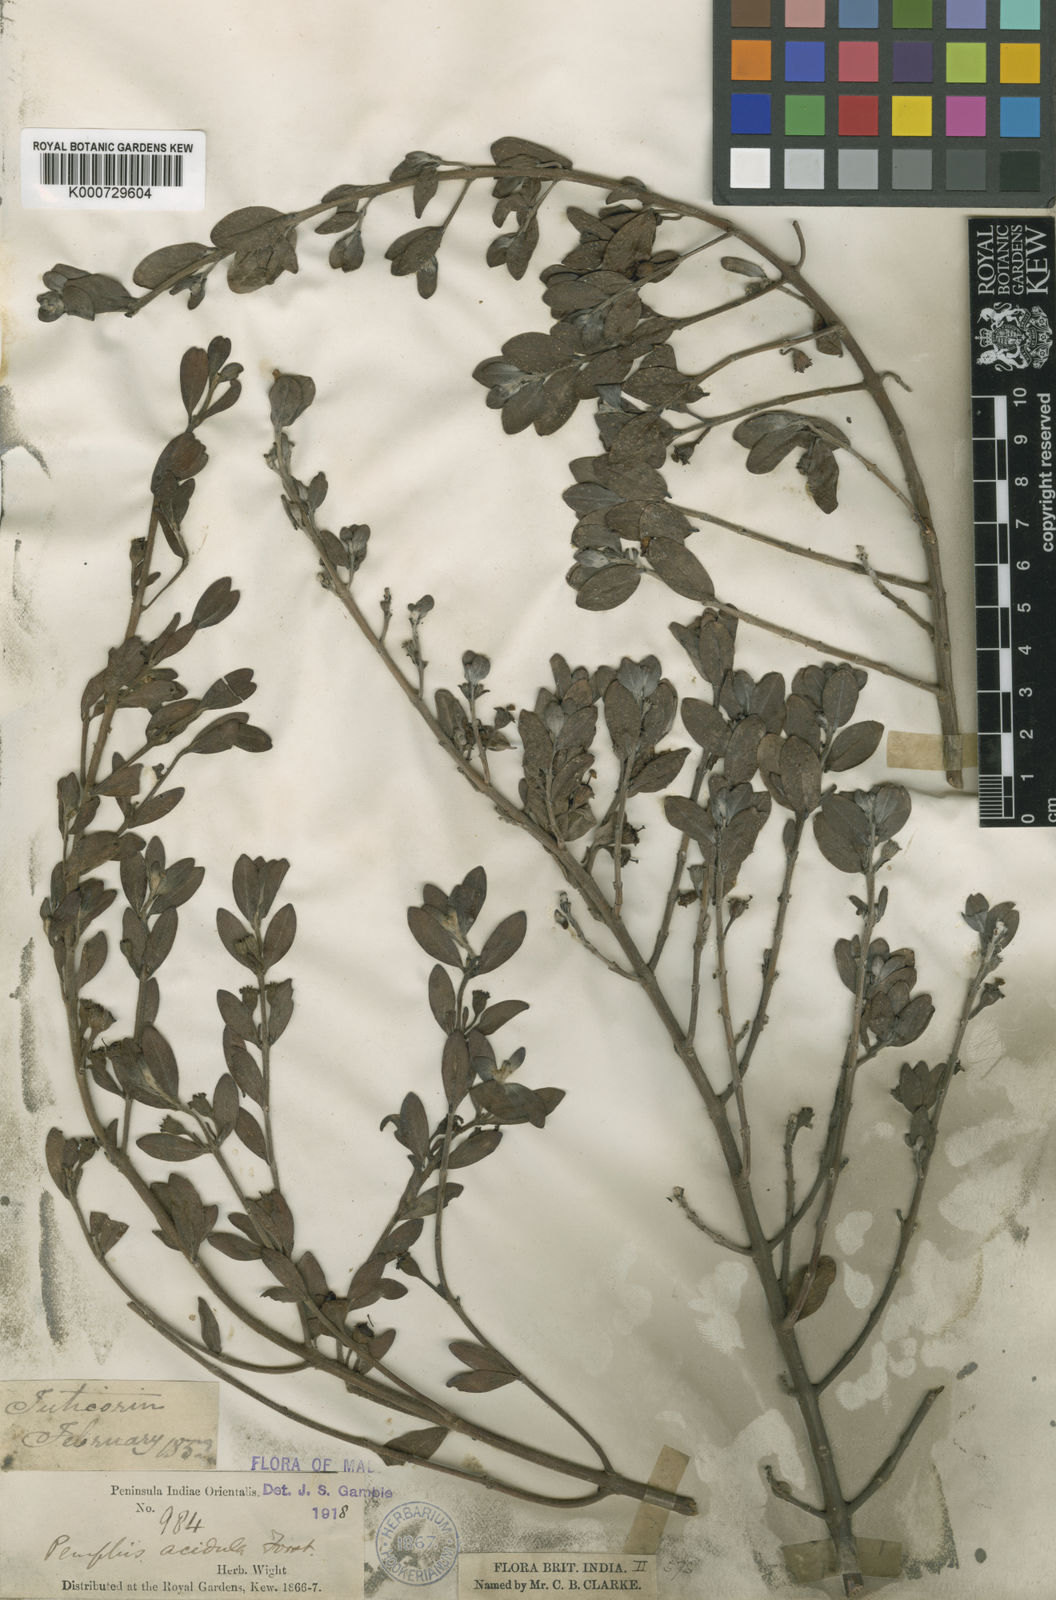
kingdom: Plantae
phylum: Tracheophyta
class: Magnoliopsida
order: Myrtales
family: Lythraceae
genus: Pemphis
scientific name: Pemphis acidula
